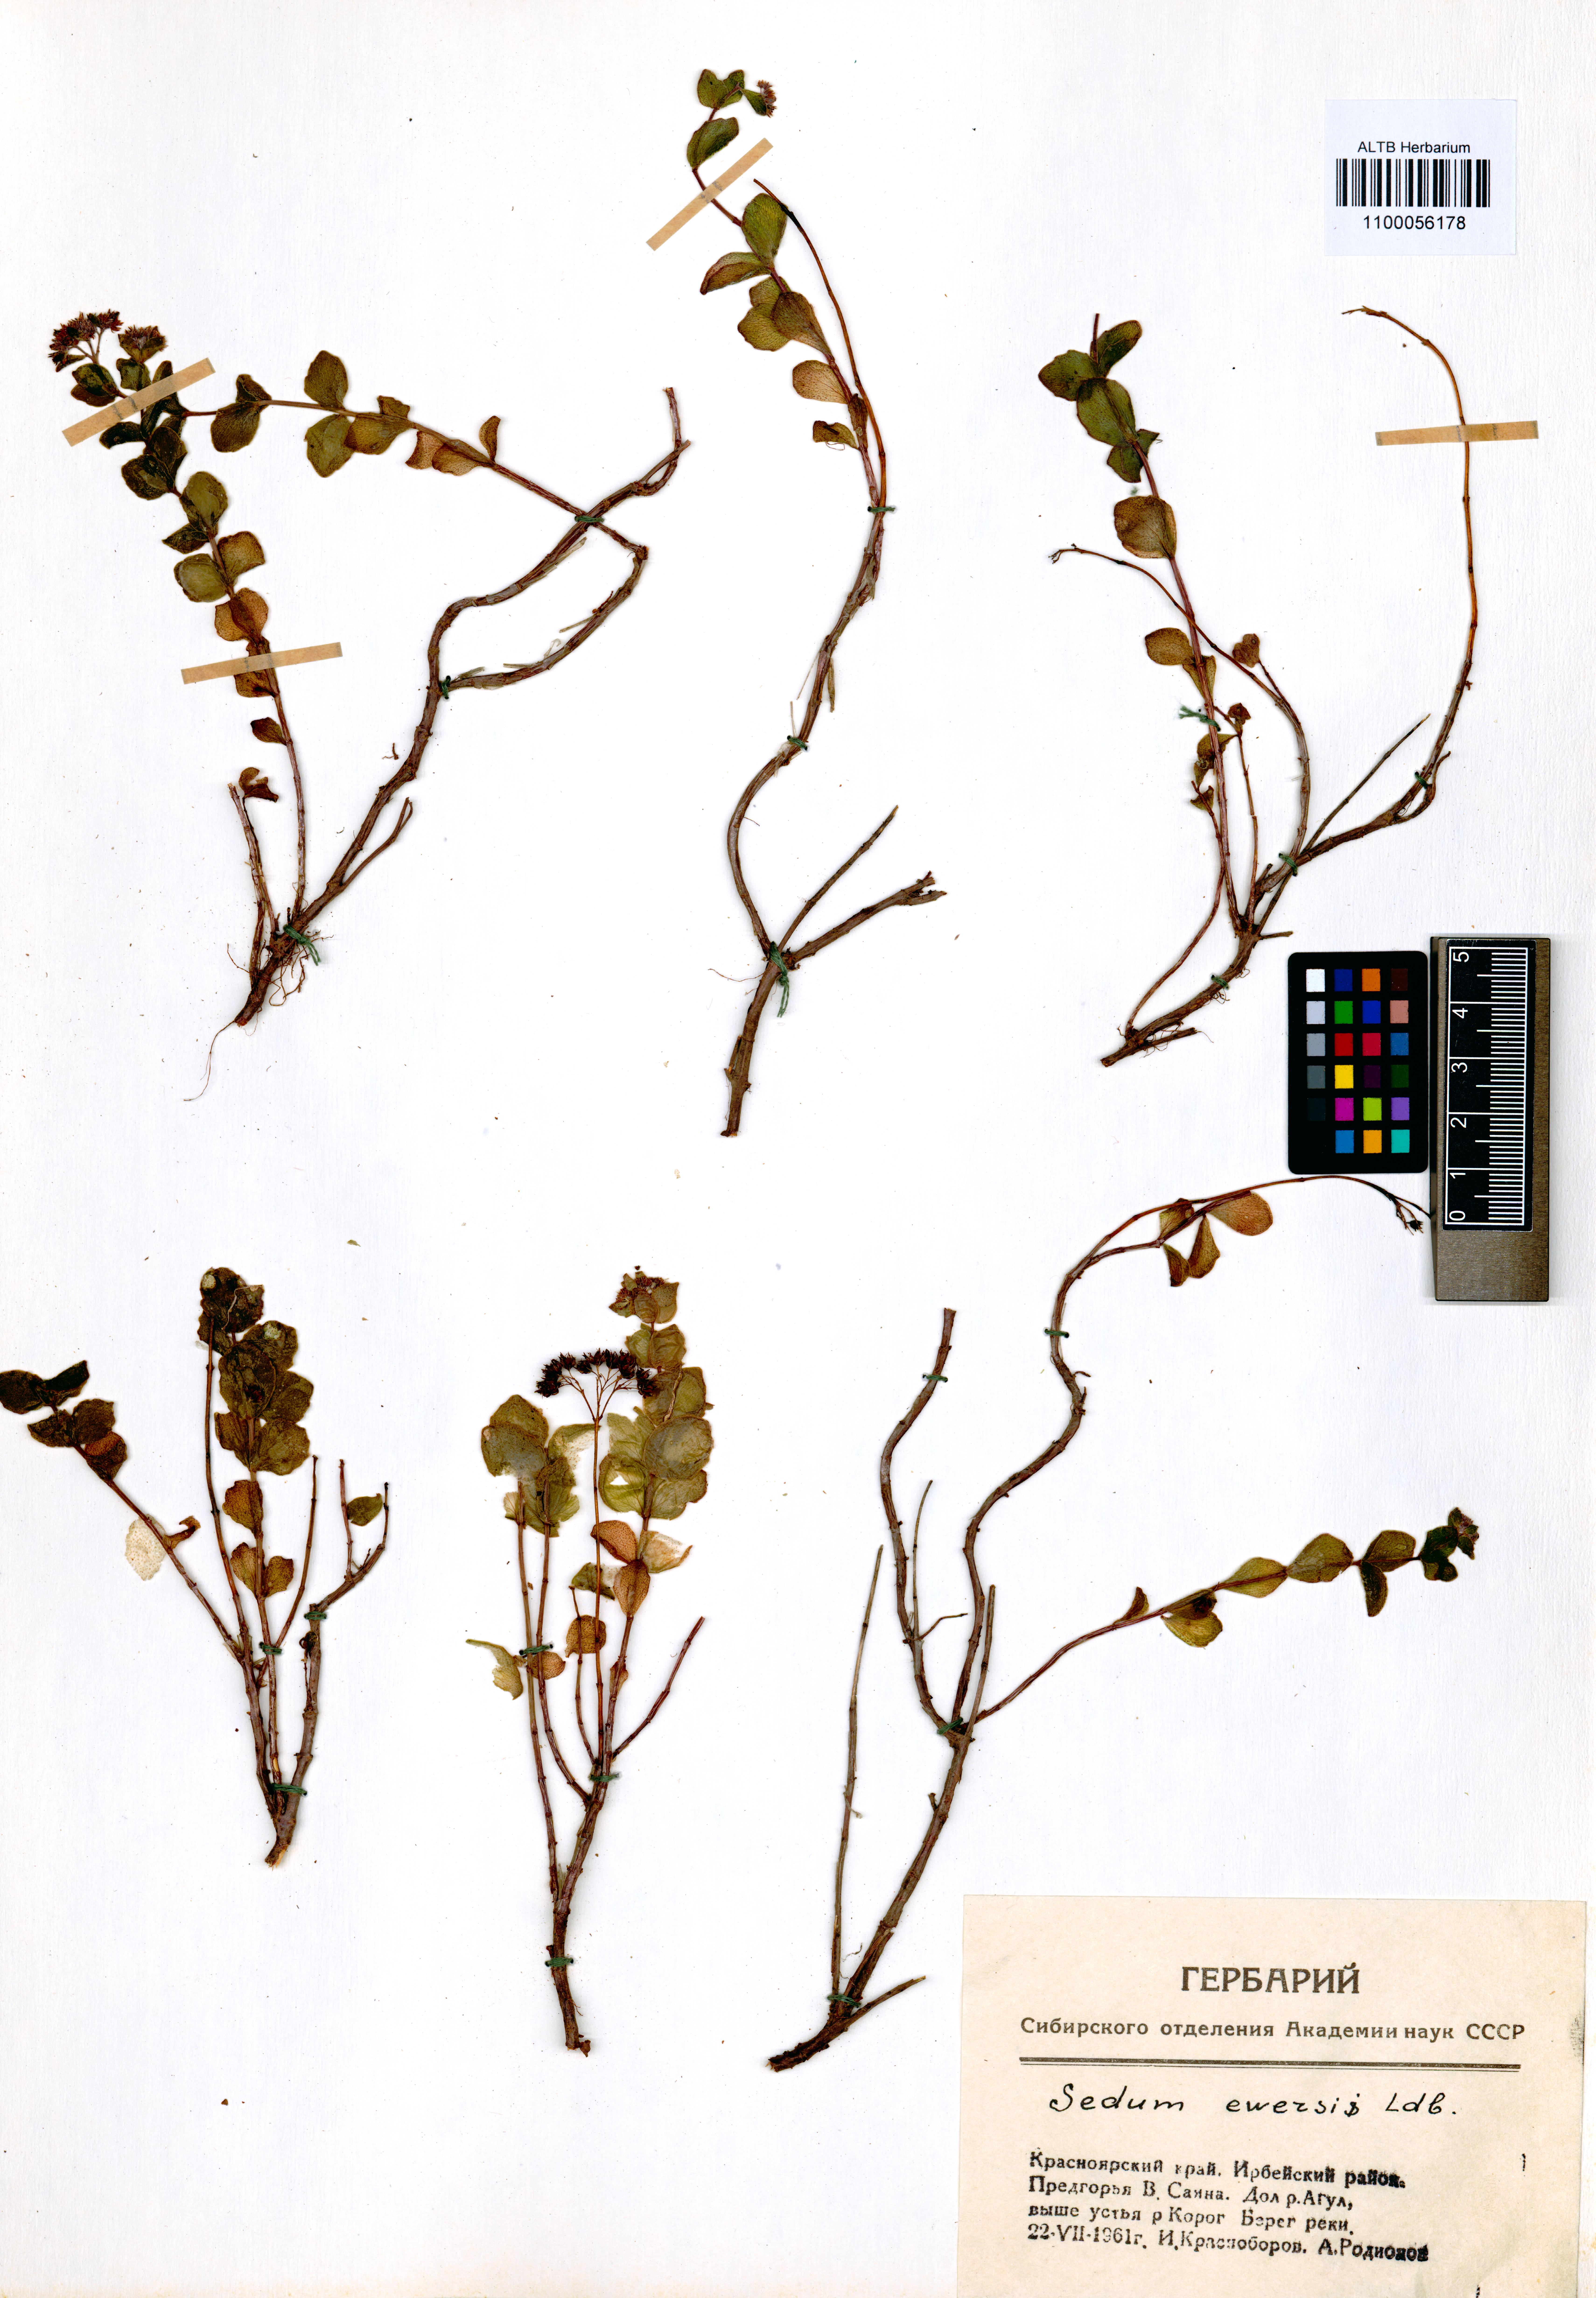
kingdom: Plantae
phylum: Tracheophyta
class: Magnoliopsida
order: Saxifragales
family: Crassulaceae
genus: Hylotelephium
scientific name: Hylotelephium ewersii
